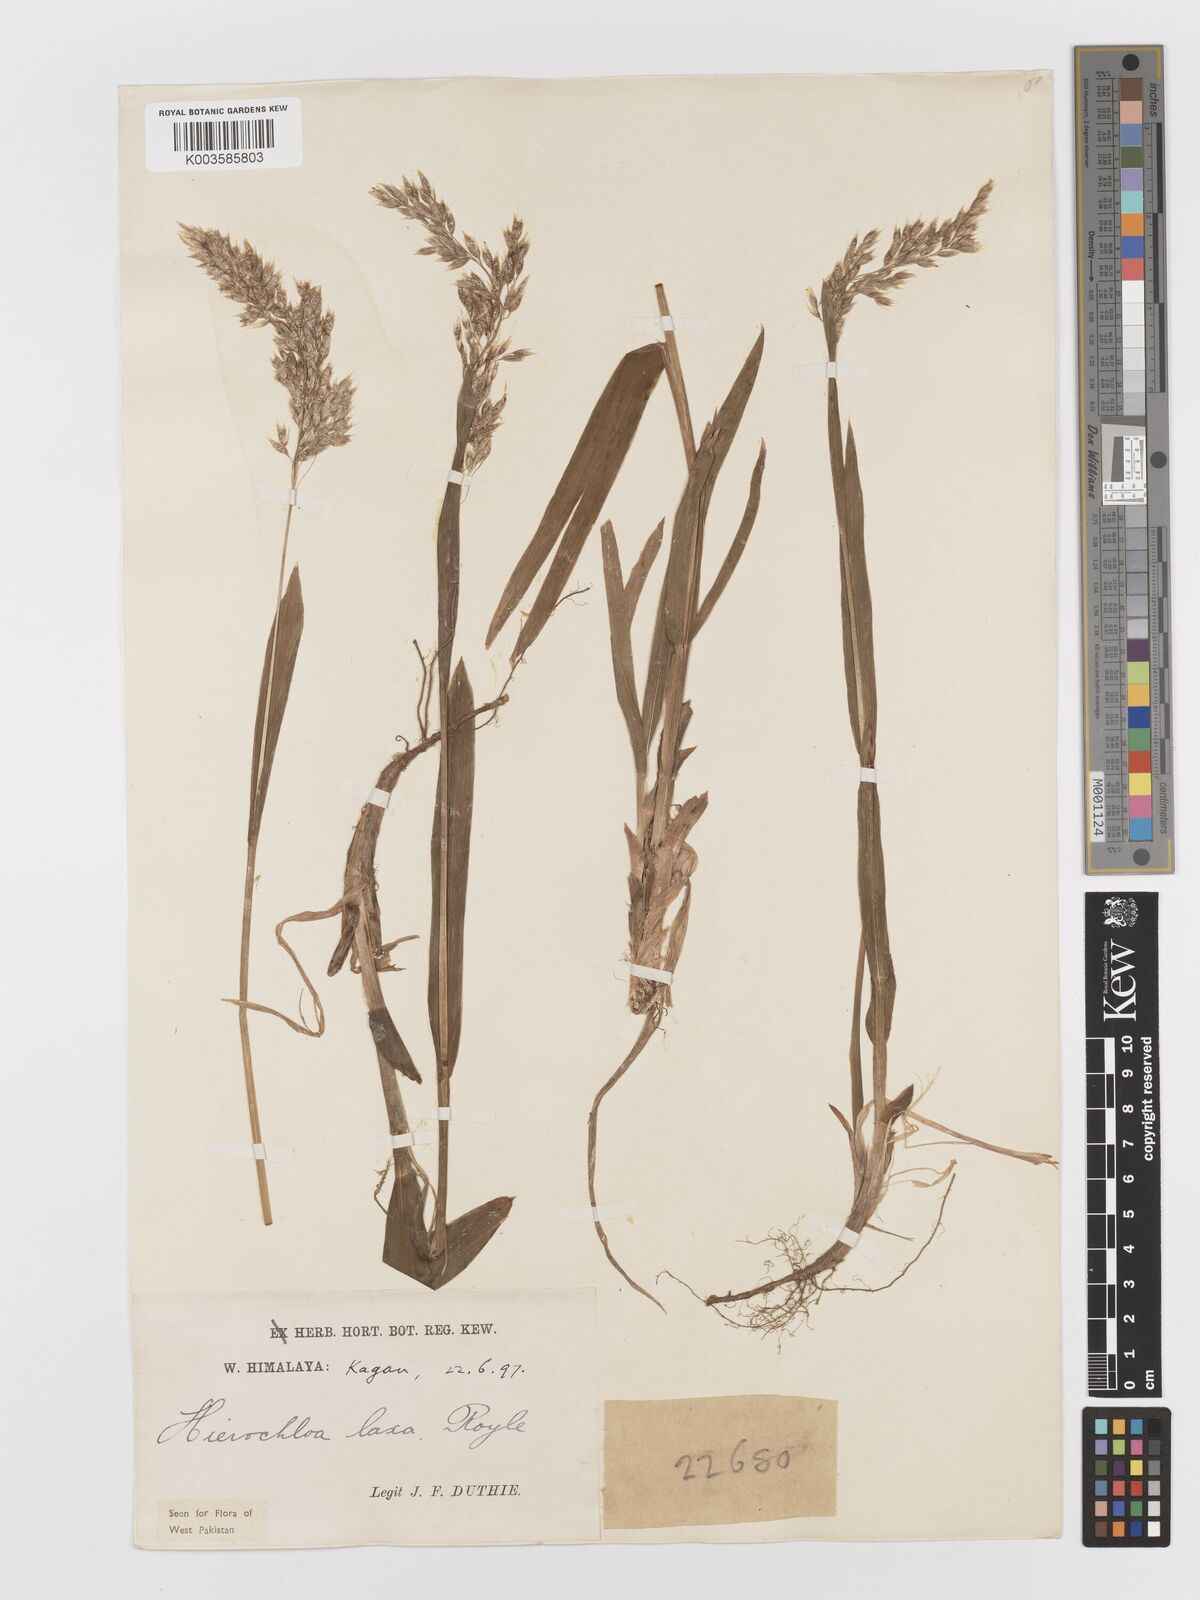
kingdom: Plantae
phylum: Tracheophyta
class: Liliopsida
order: Poales
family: Poaceae
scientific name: Poaceae
